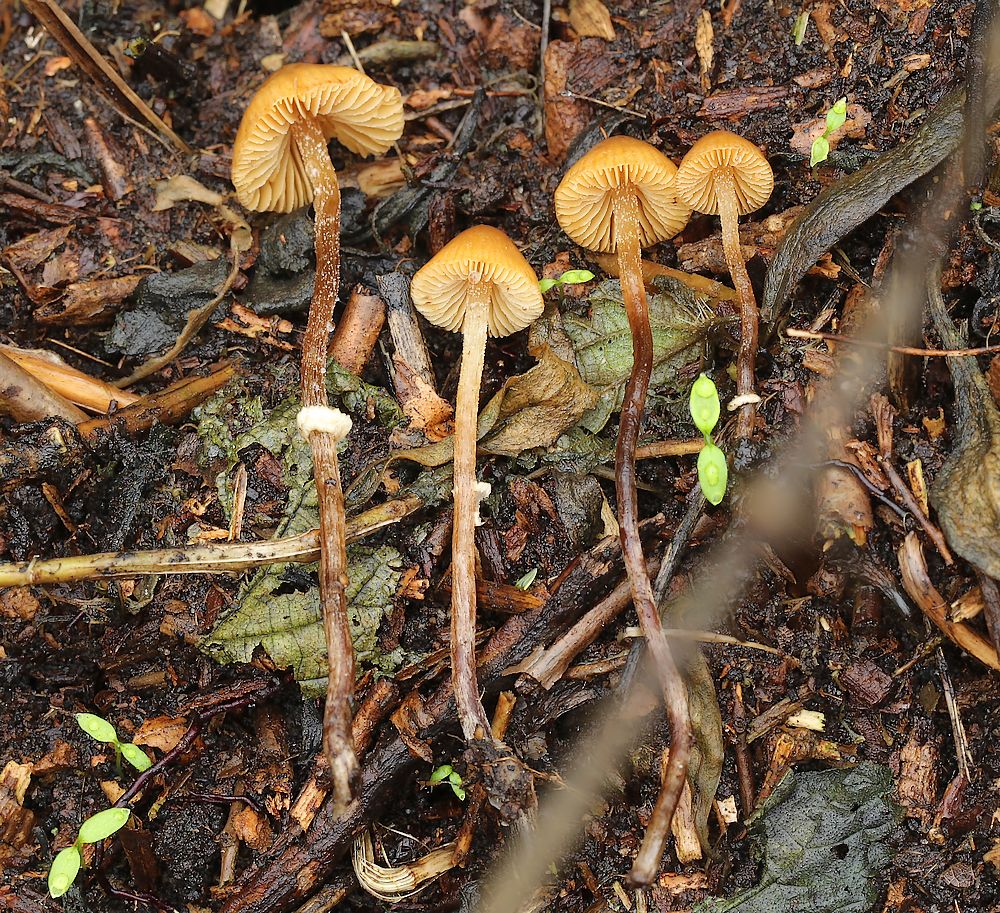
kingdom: Fungi
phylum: Basidiomycota
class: Agaricomycetes
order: Agaricales
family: Bolbitiaceae
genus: Pholiotina
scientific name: Pholiotina teneroides
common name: tosporet dansehat
